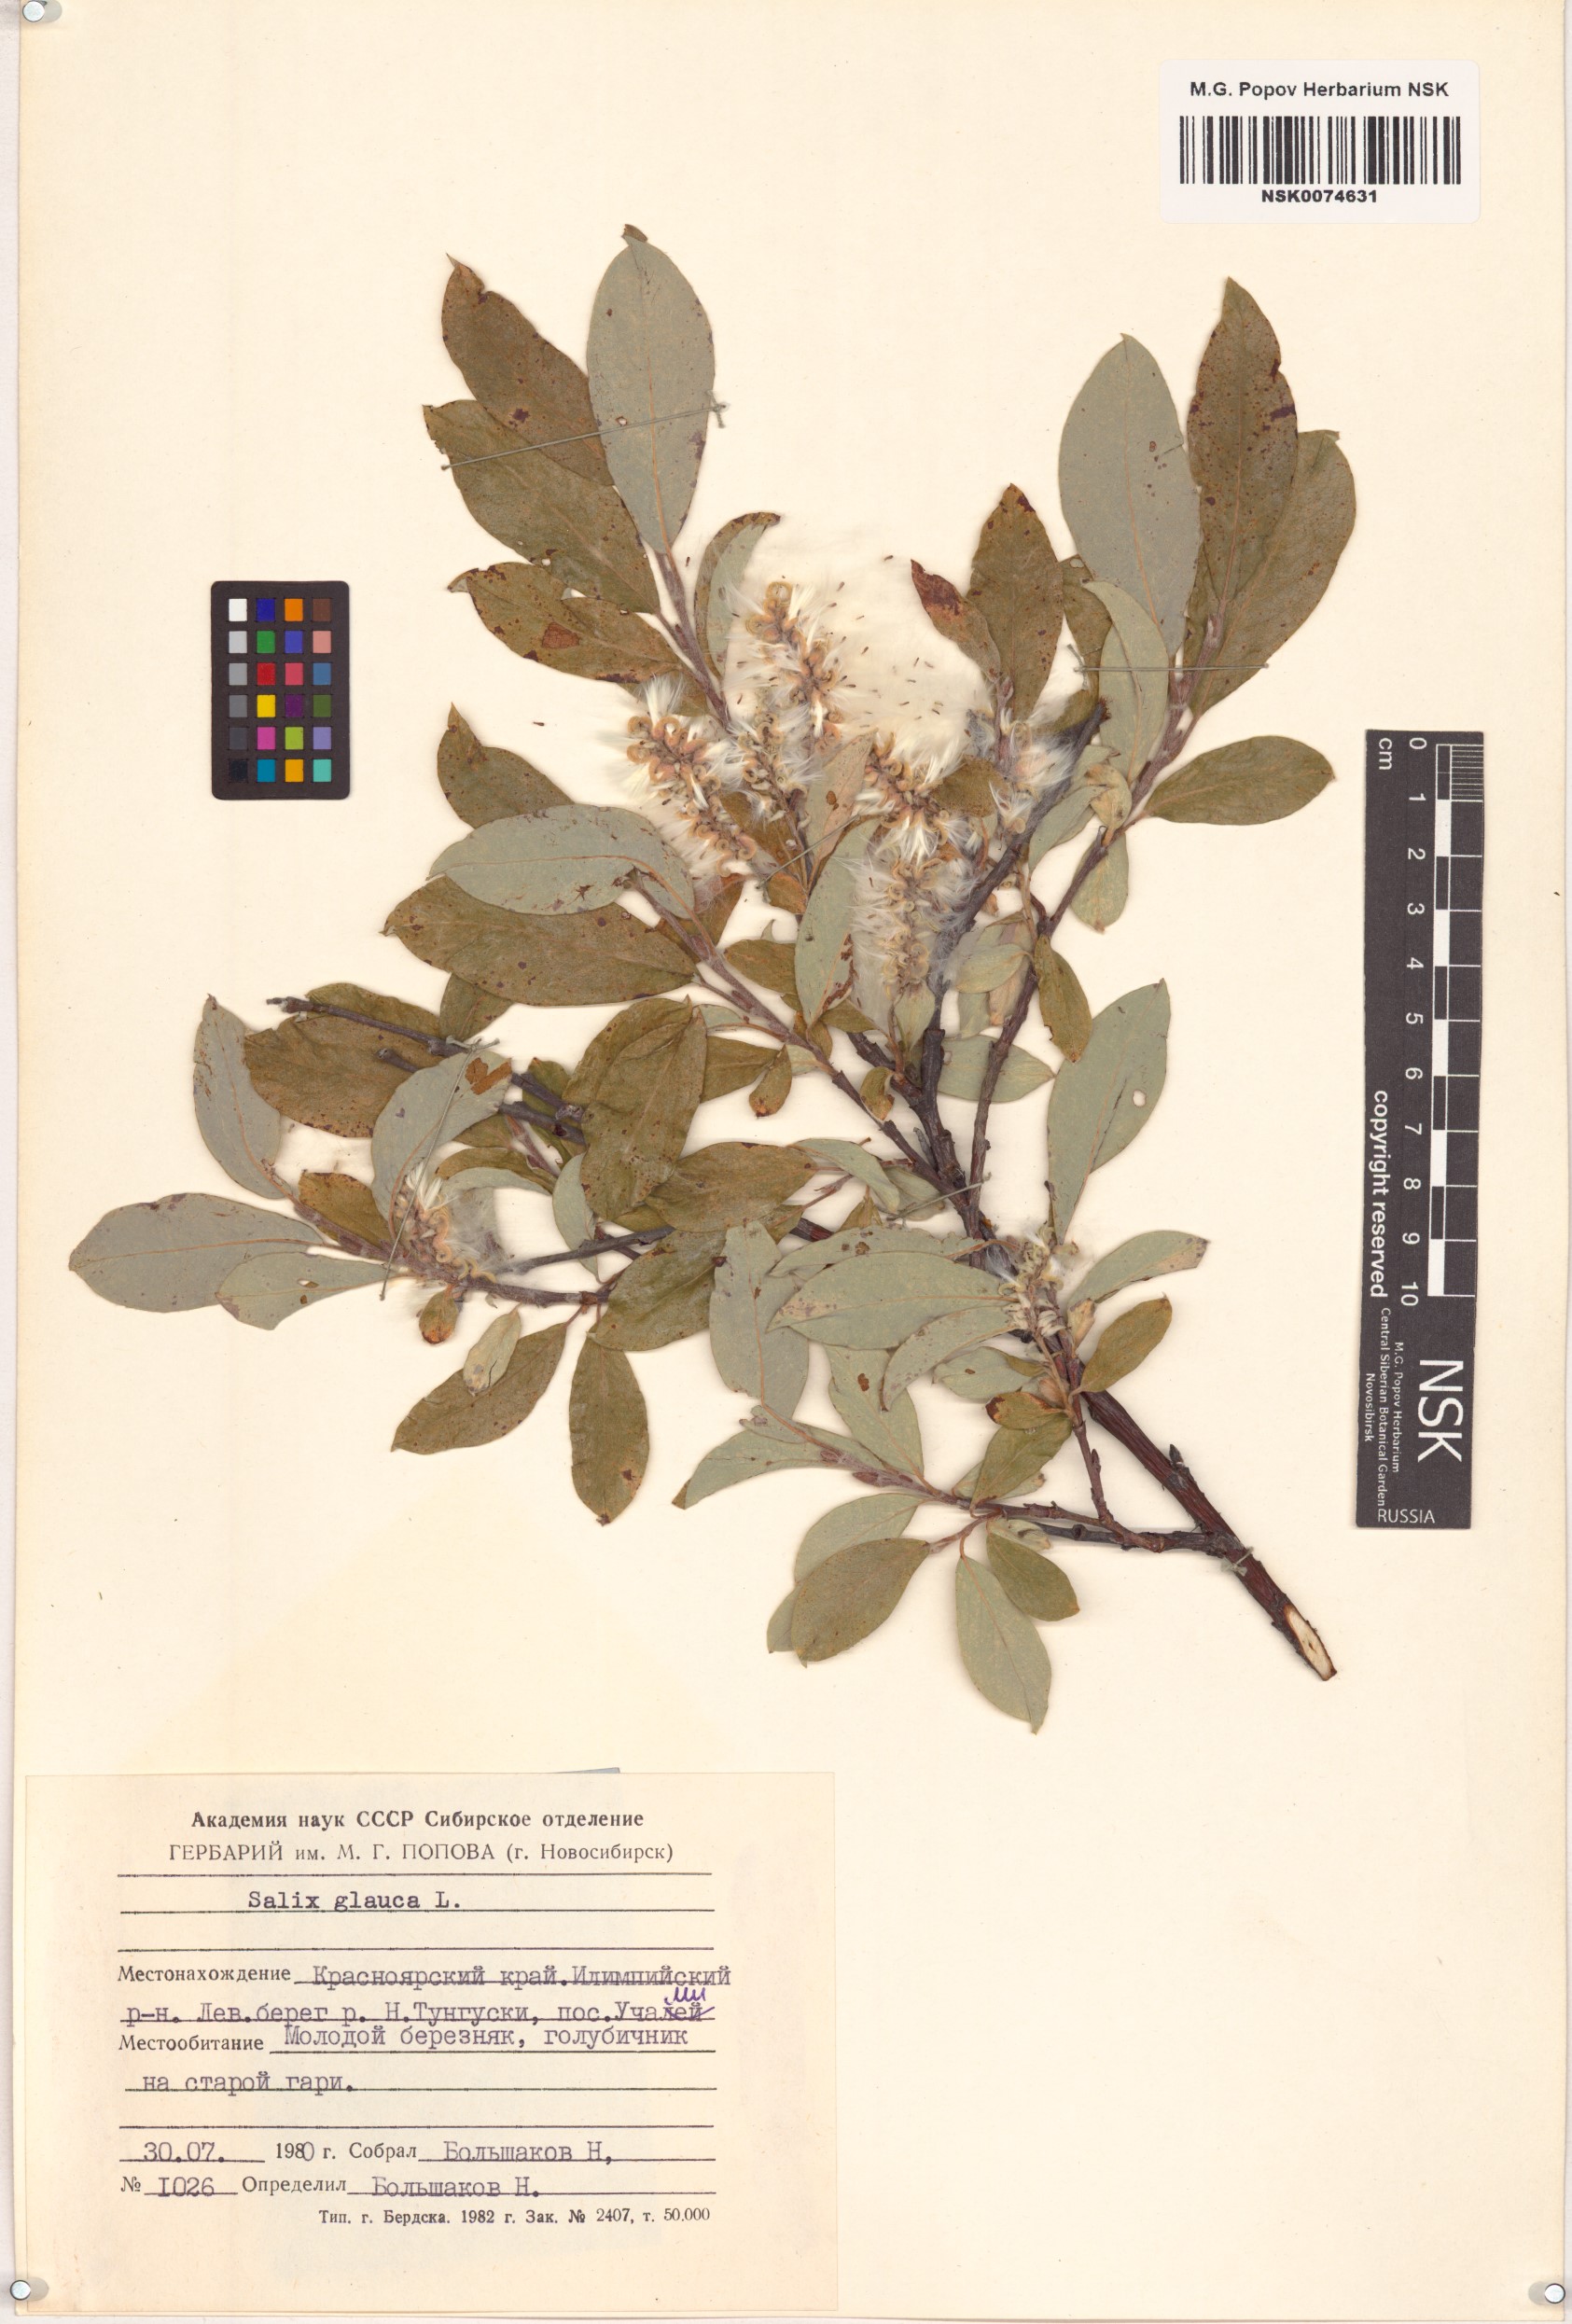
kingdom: Plantae
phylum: Tracheophyta
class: Magnoliopsida
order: Malpighiales
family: Salicaceae
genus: Salix
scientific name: Salix glauca
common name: Glaucous willow
